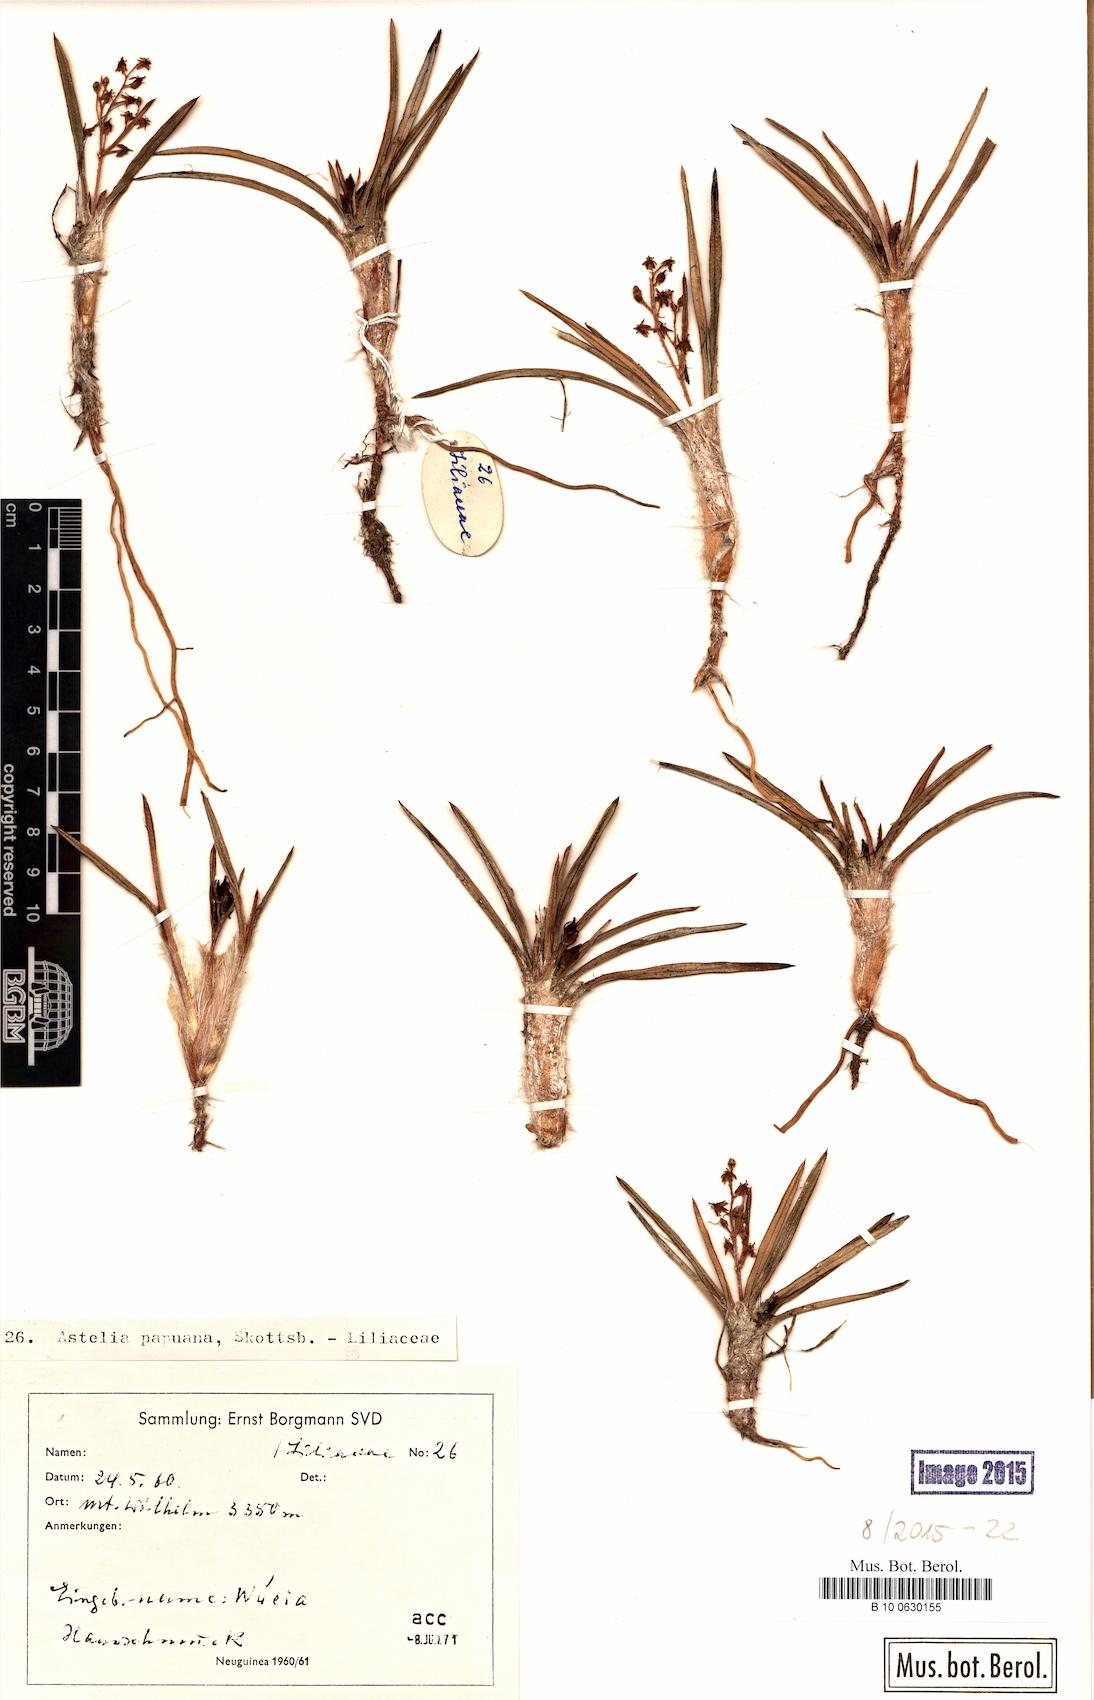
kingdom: Plantae
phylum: Tracheophyta
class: Liliopsida
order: Asparagales
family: Asteliaceae
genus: Astelia
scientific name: Astelia papuana
